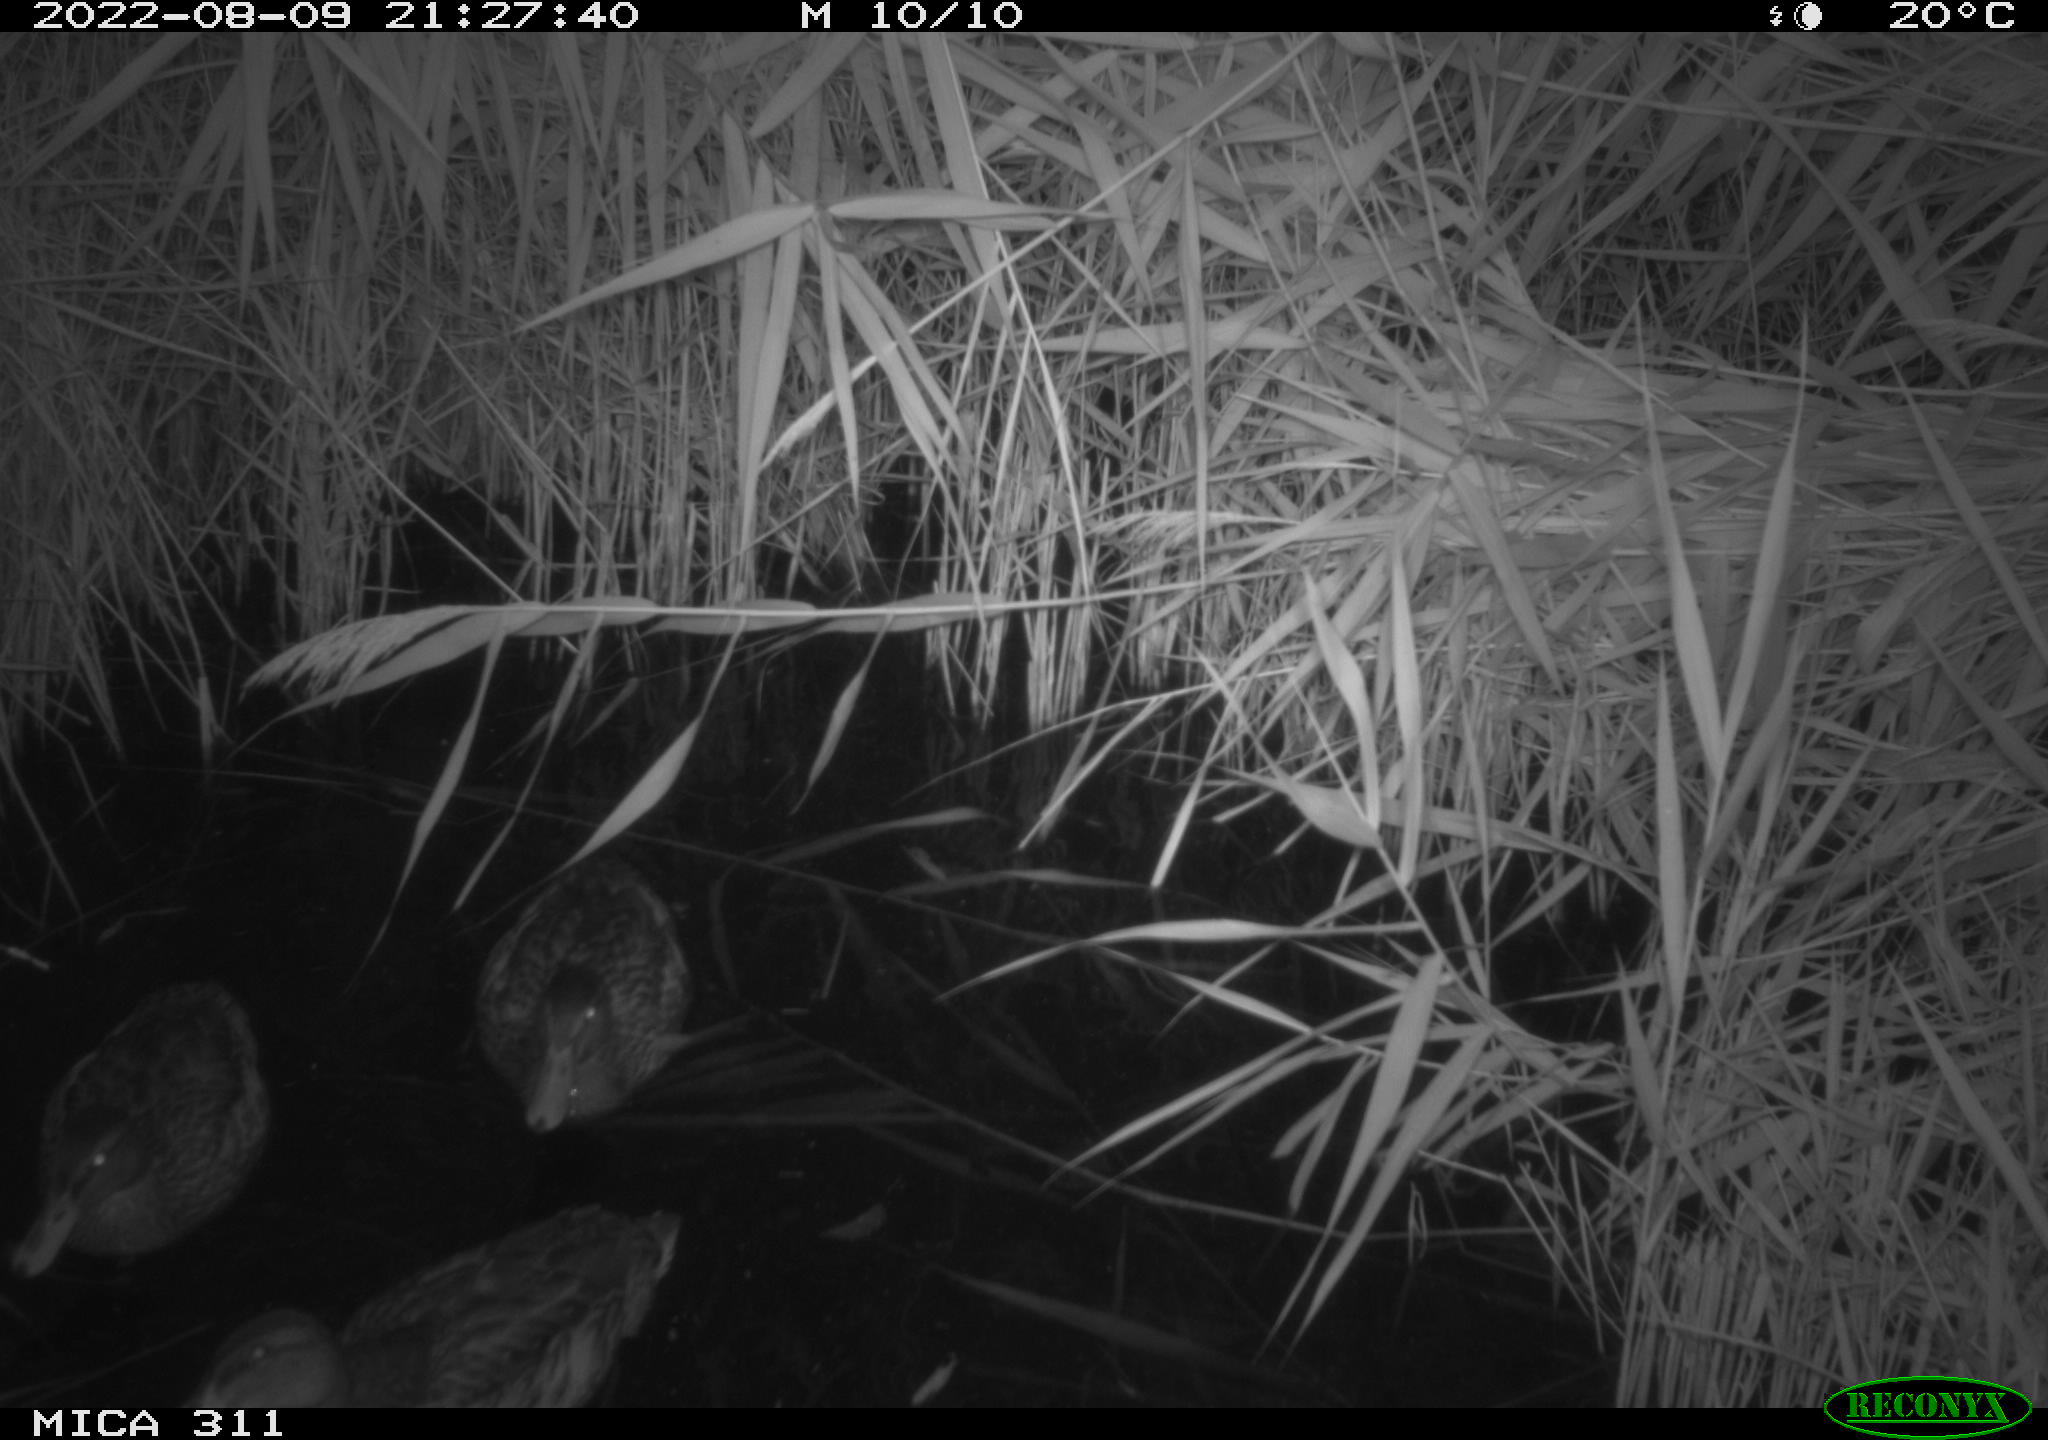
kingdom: Animalia
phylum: Chordata
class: Aves
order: Anseriformes
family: Anatidae
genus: Anas
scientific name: Anas platyrhynchos
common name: Mallard
